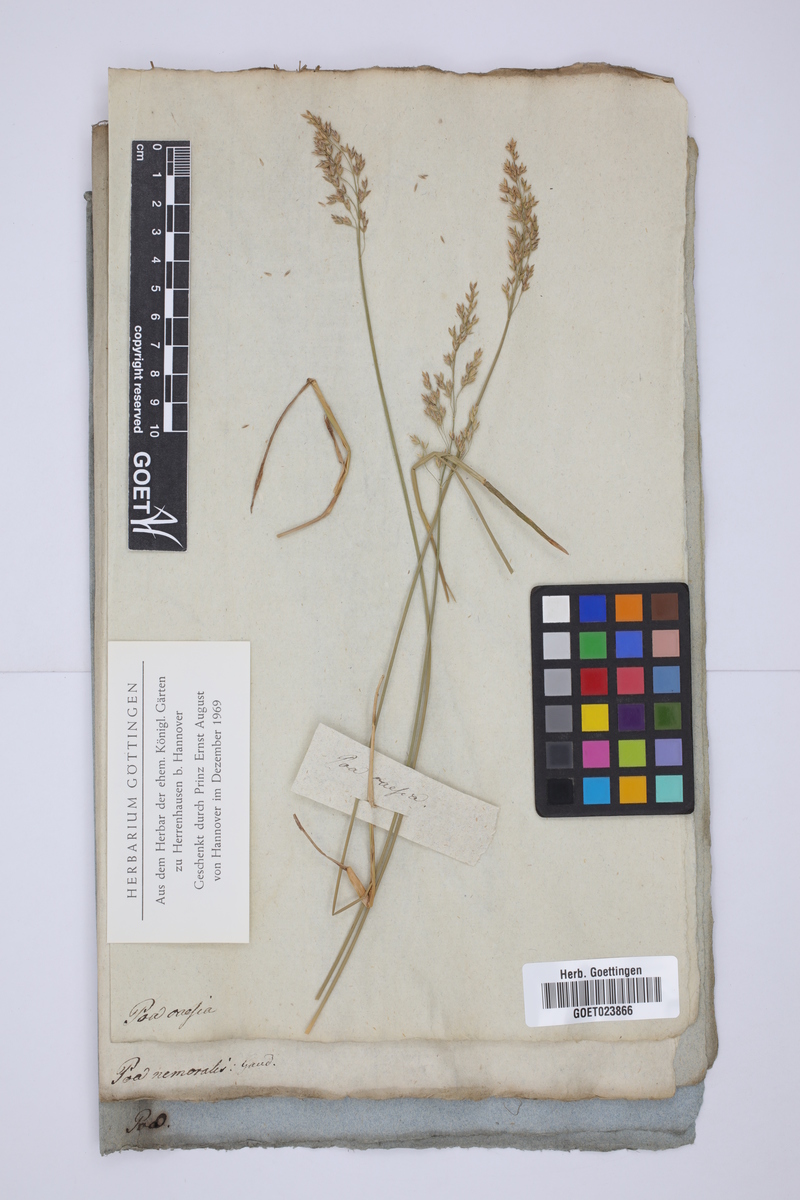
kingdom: Plantae
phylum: Tracheophyta
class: Liliopsida
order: Poales
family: Poaceae
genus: Poa
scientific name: Poa glauca
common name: Glaucous bluegrass
